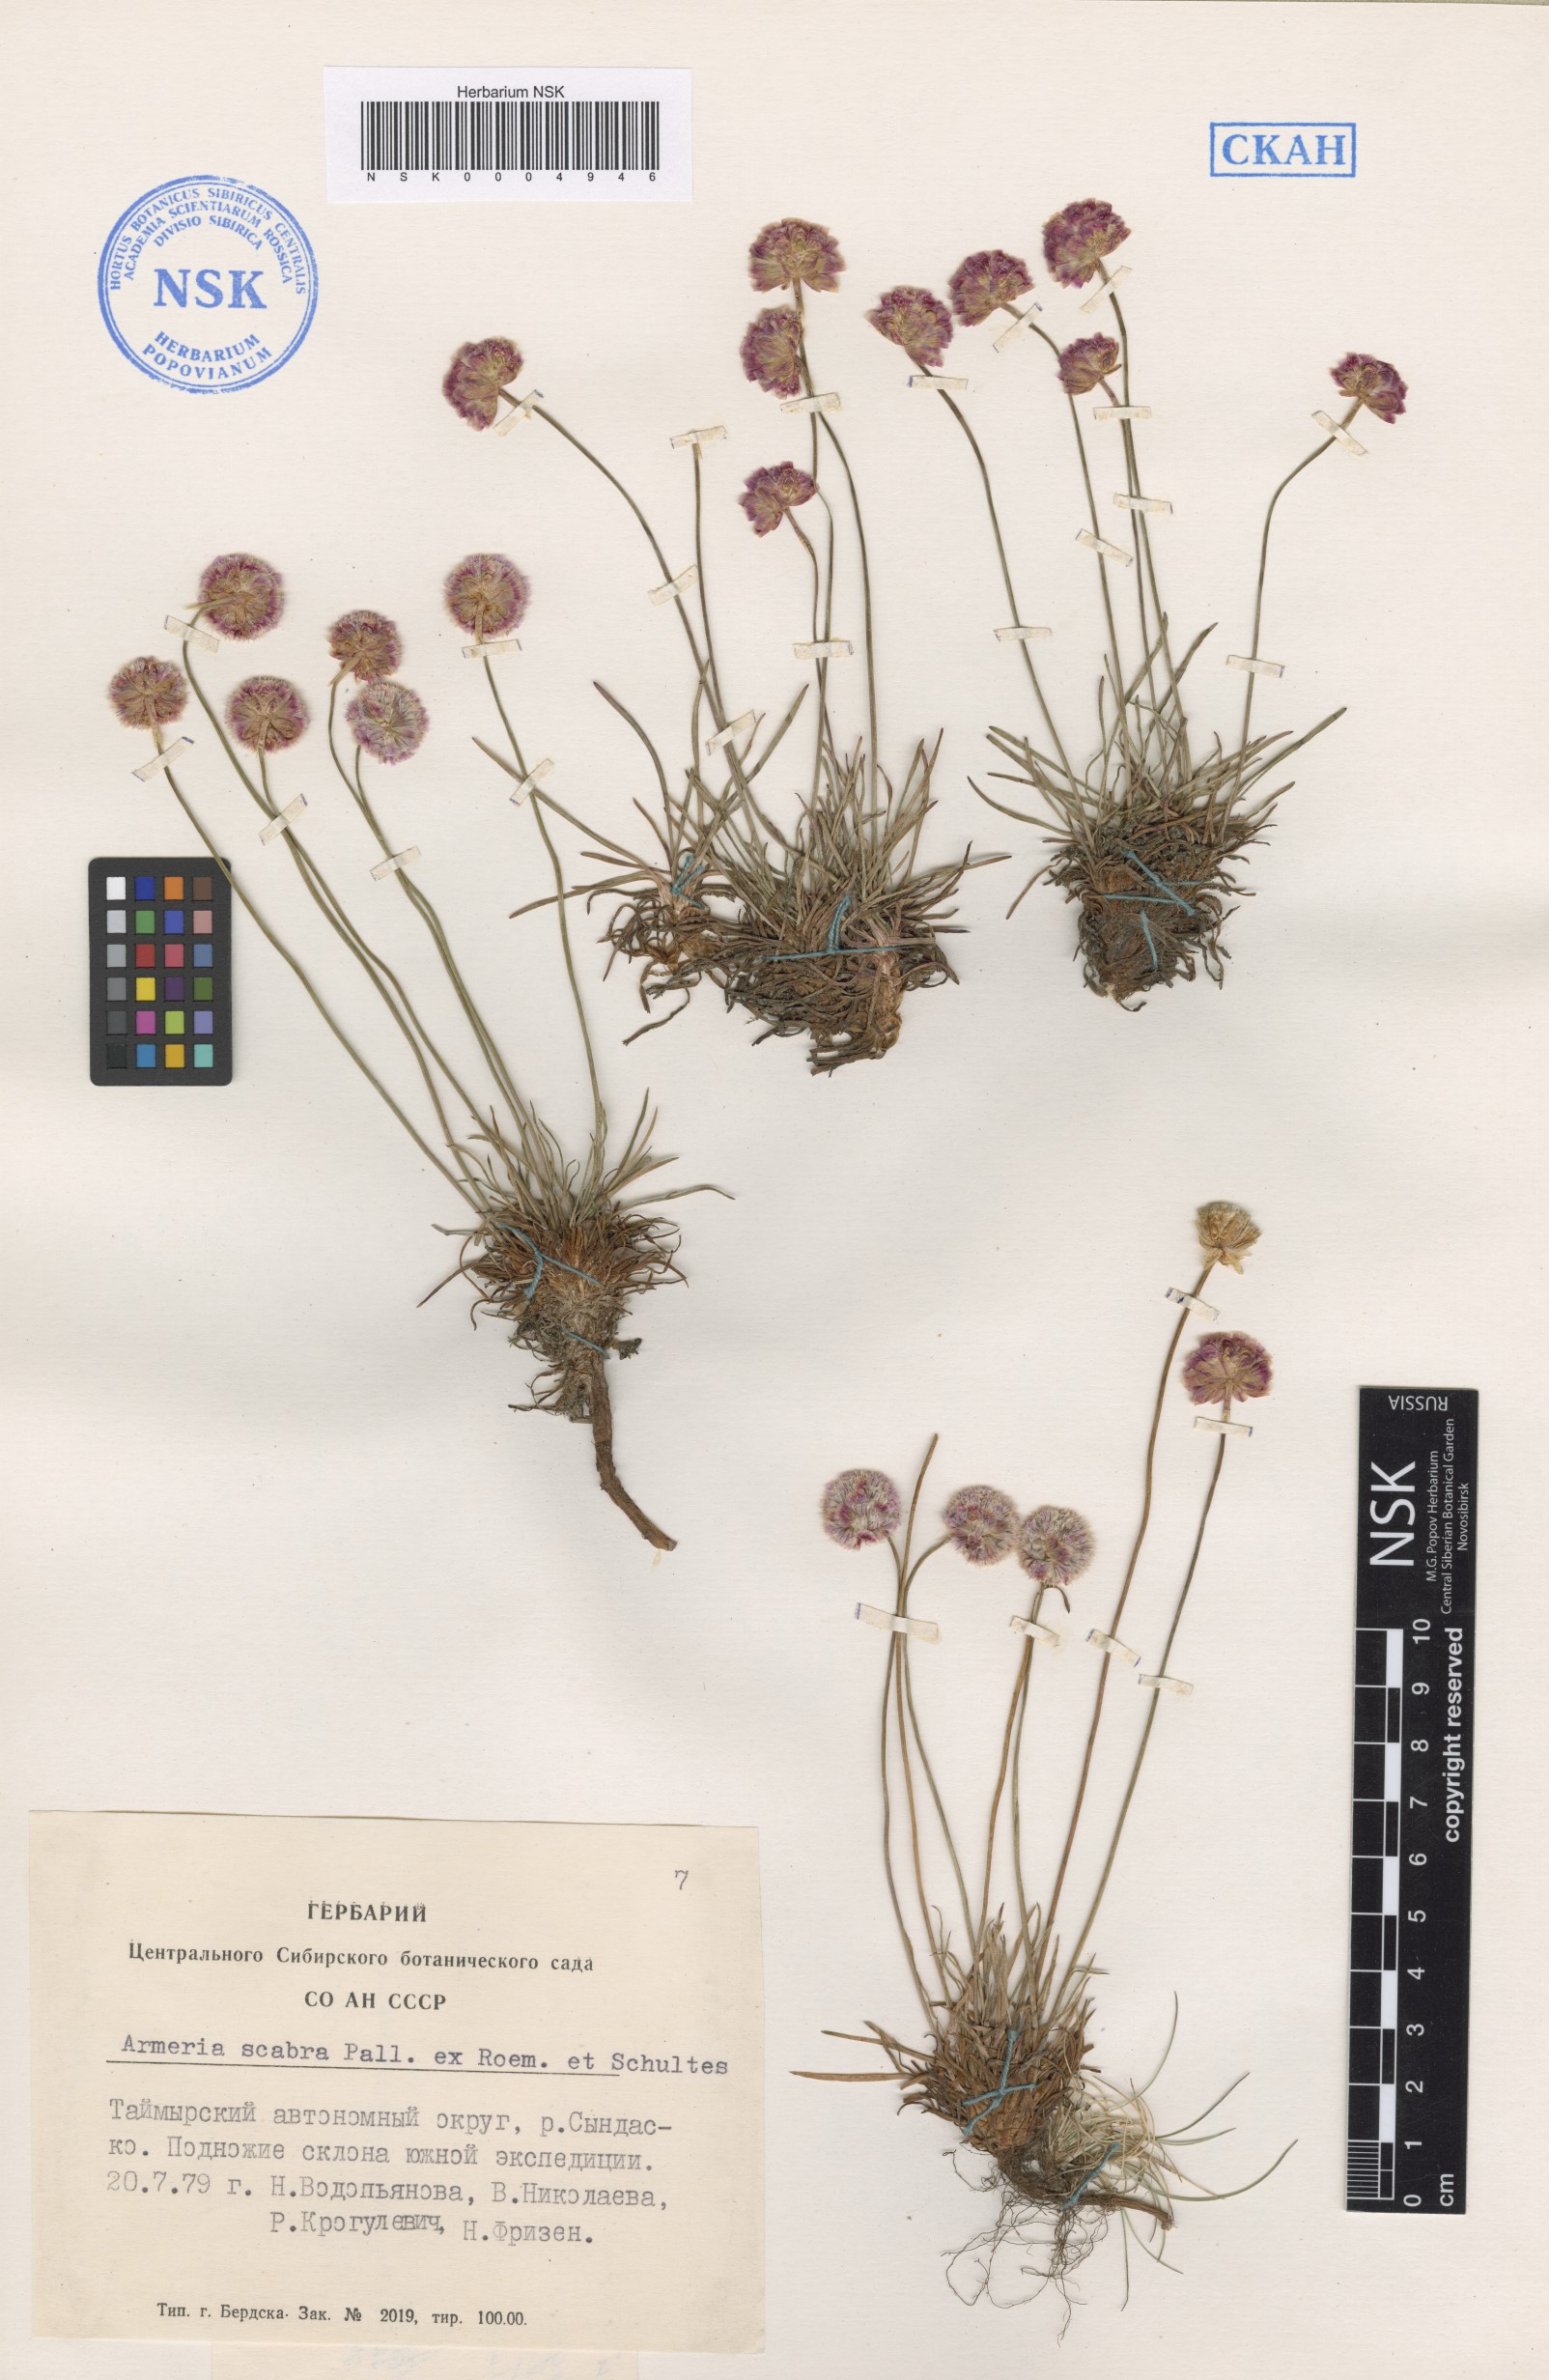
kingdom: Plantae
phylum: Tracheophyta
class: Magnoliopsida
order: Caryophyllales
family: Plumbaginaceae
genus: Armeria
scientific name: Armeria maritima
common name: Thrift
